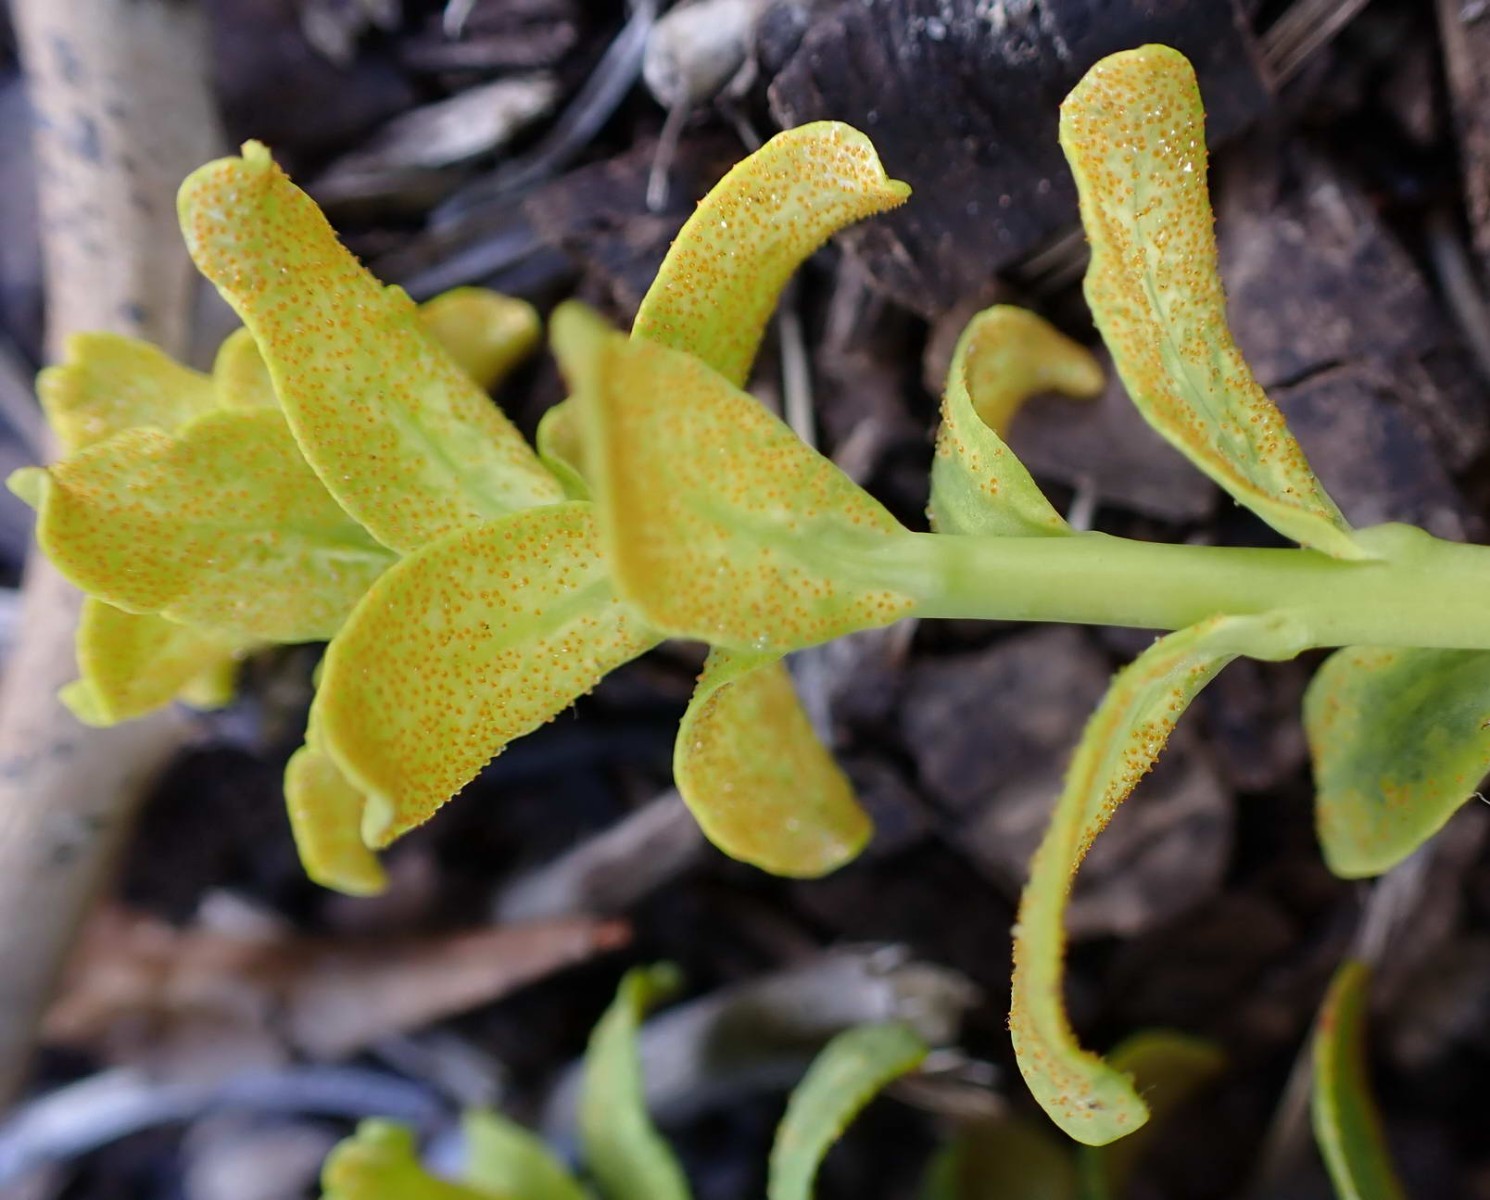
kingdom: Fungi
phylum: Basidiomycota
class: Pucciniomycetes
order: Pucciniales
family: Pucciniaceae
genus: Uromyces
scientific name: Uromyces scutellatus
